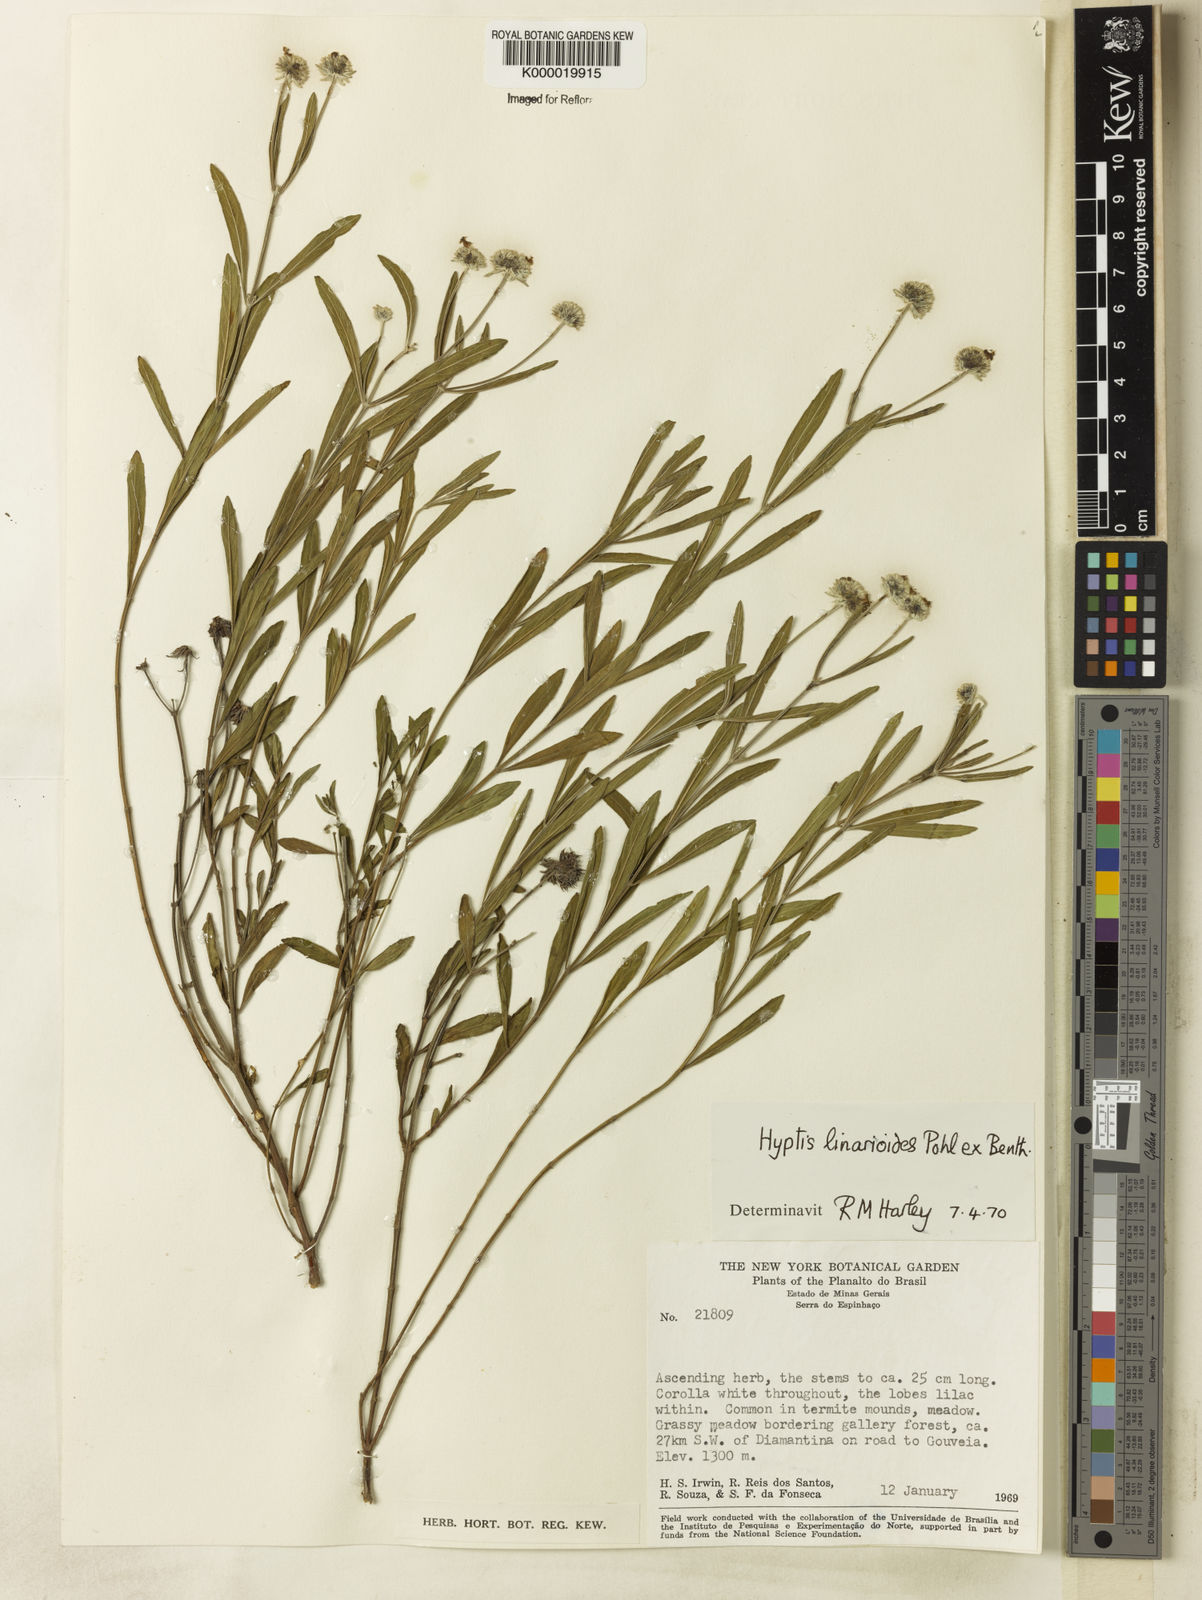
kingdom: Plantae
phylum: Tracheophyta
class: Magnoliopsida
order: Lamiales
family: Lamiaceae
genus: Hyptis
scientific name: Hyptis linarioides
